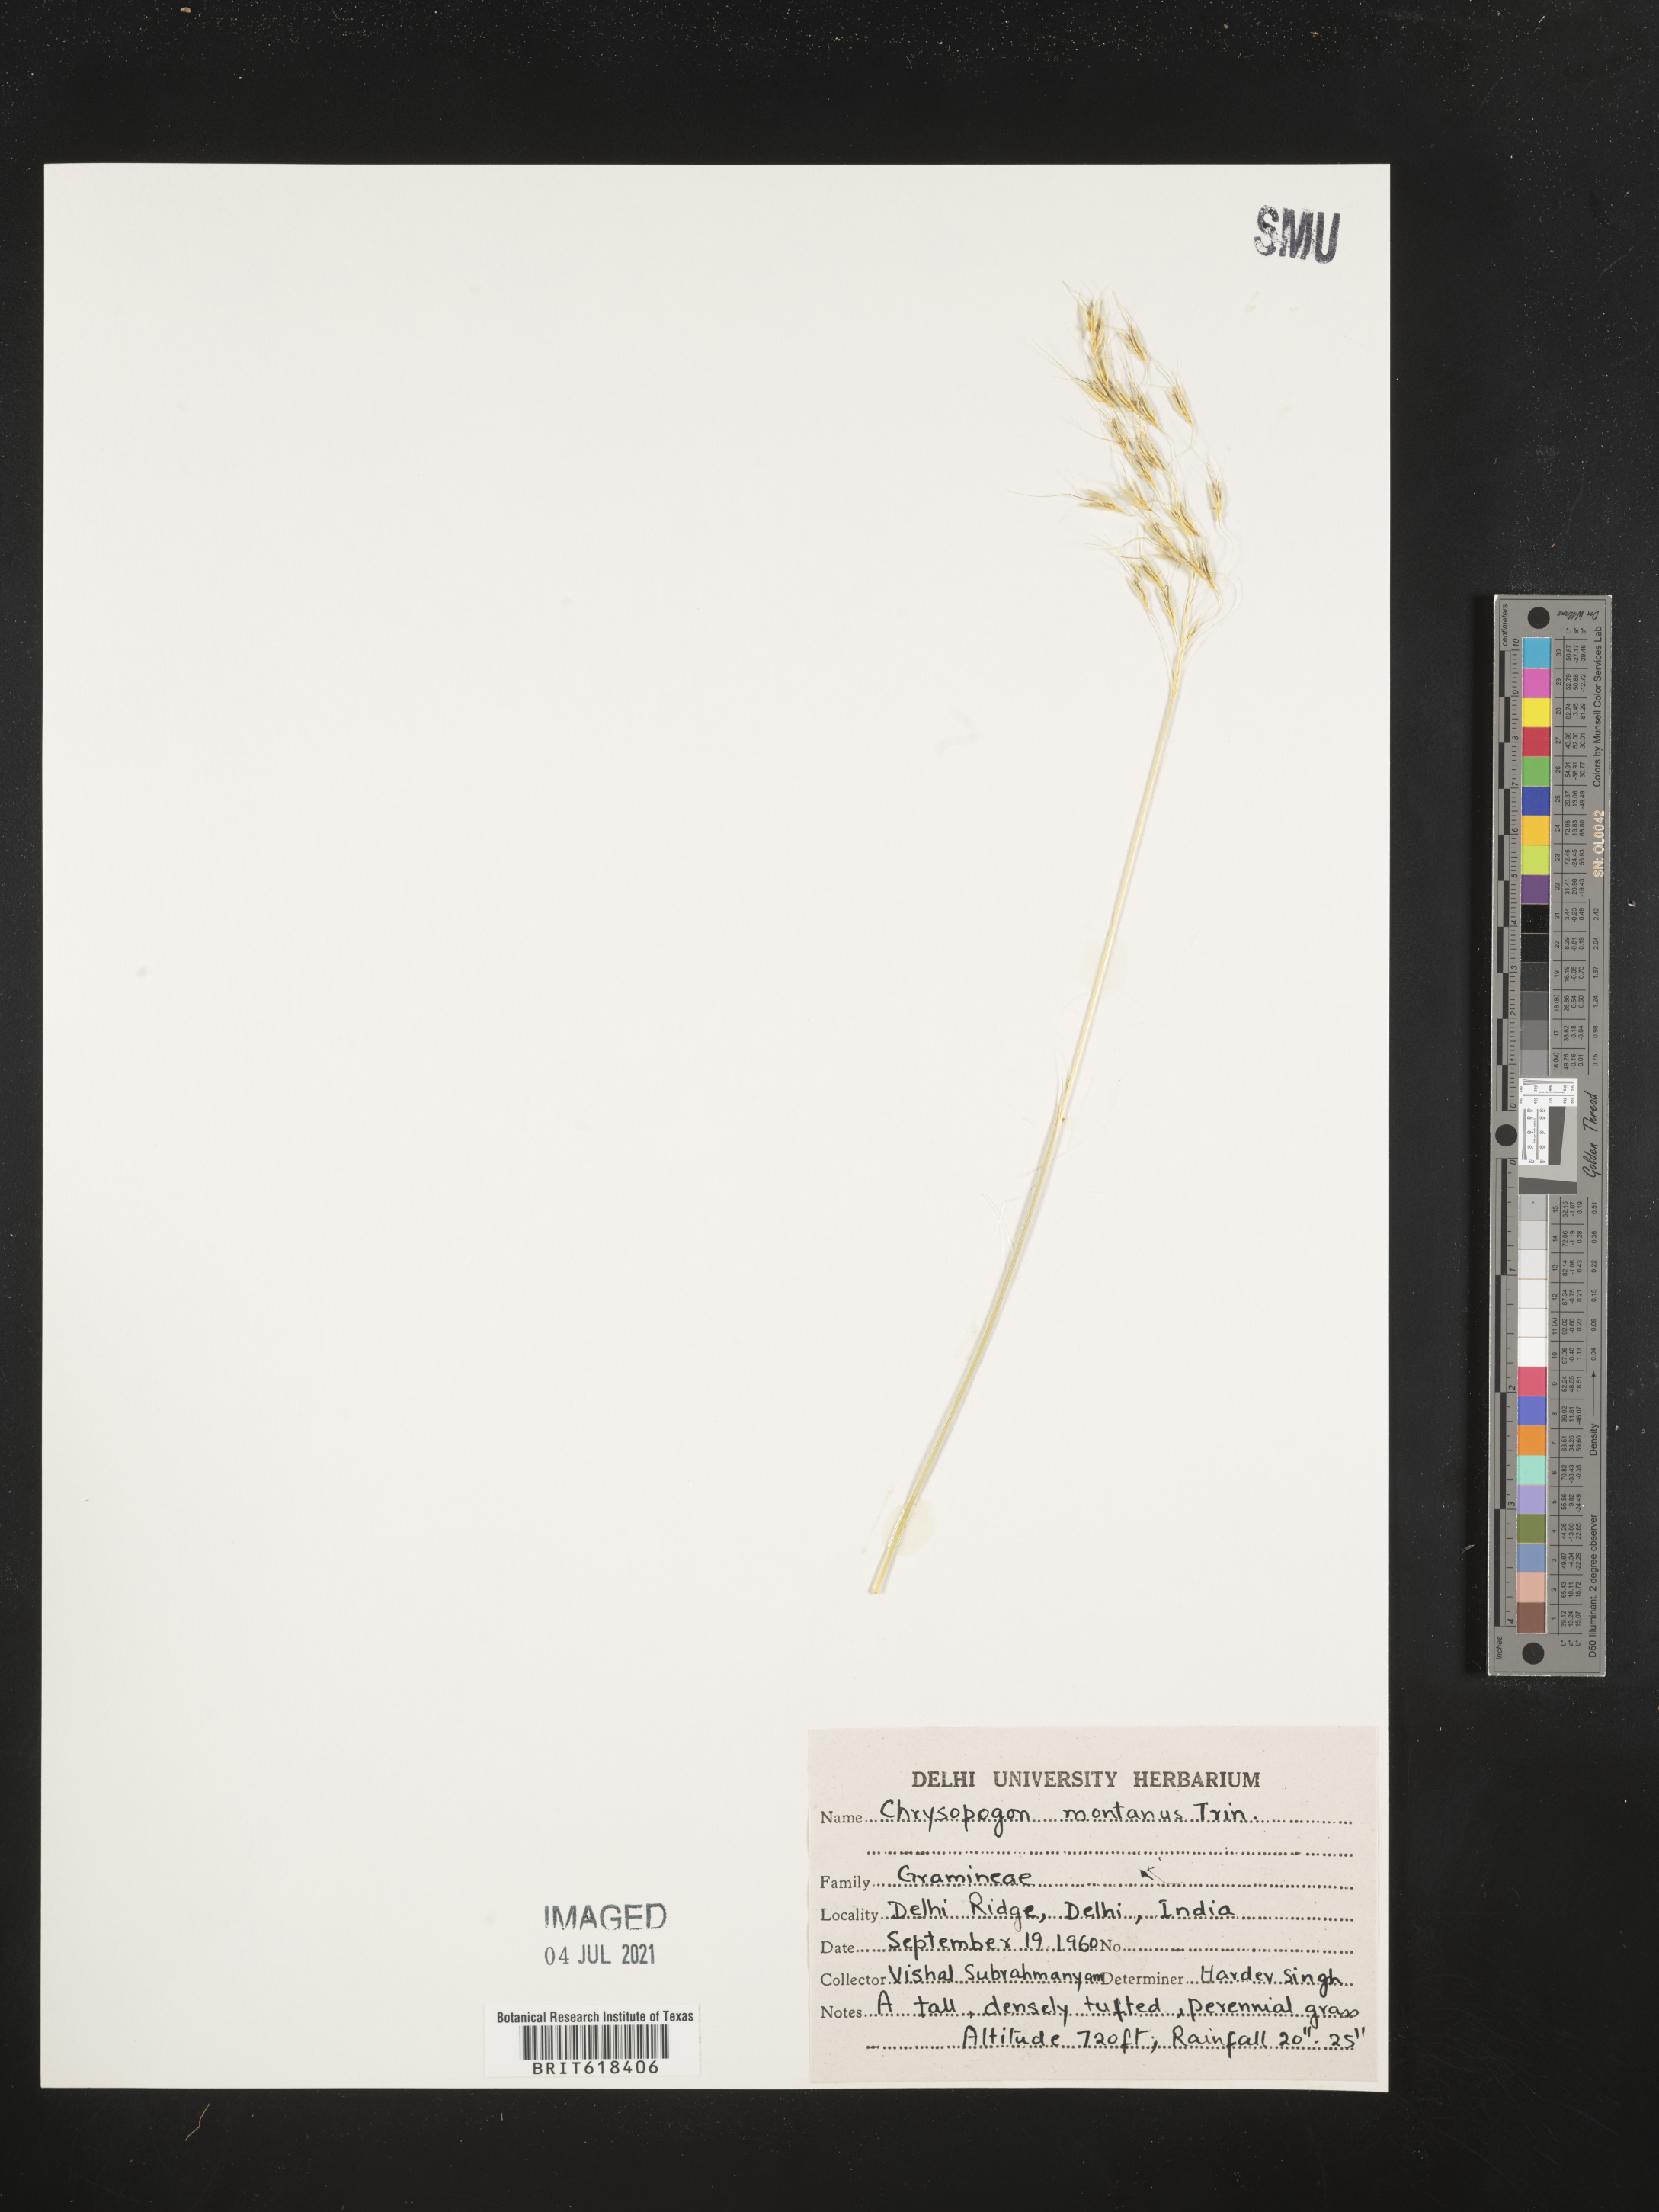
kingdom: Plantae
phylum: Tracheophyta
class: Liliopsida
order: Poales
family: Poaceae
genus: Chrysopogon
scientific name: Chrysopogon fulvus
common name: Red false beardgrass
